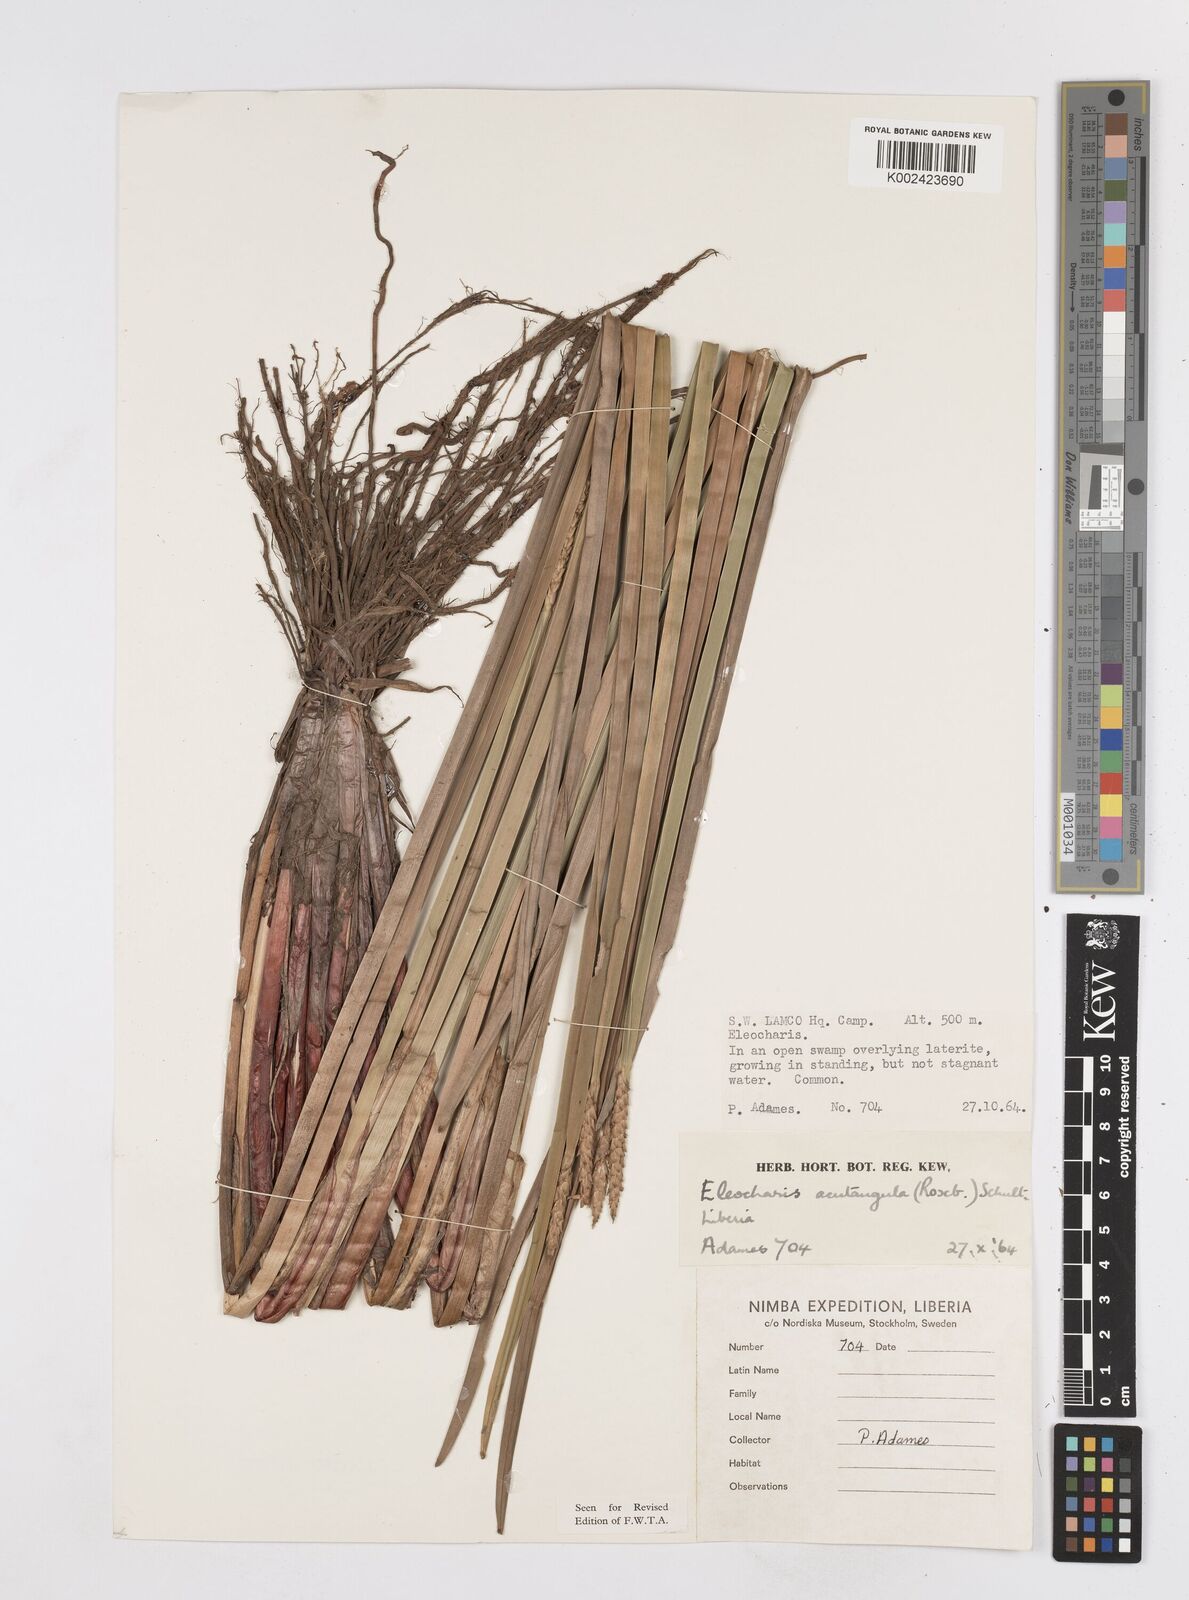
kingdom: Plantae
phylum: Tracheophyta
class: Liliopsida
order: Poales
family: Cyperaceae
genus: Eleocharis
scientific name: Eleocharis acutangula
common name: Acute spikerush
